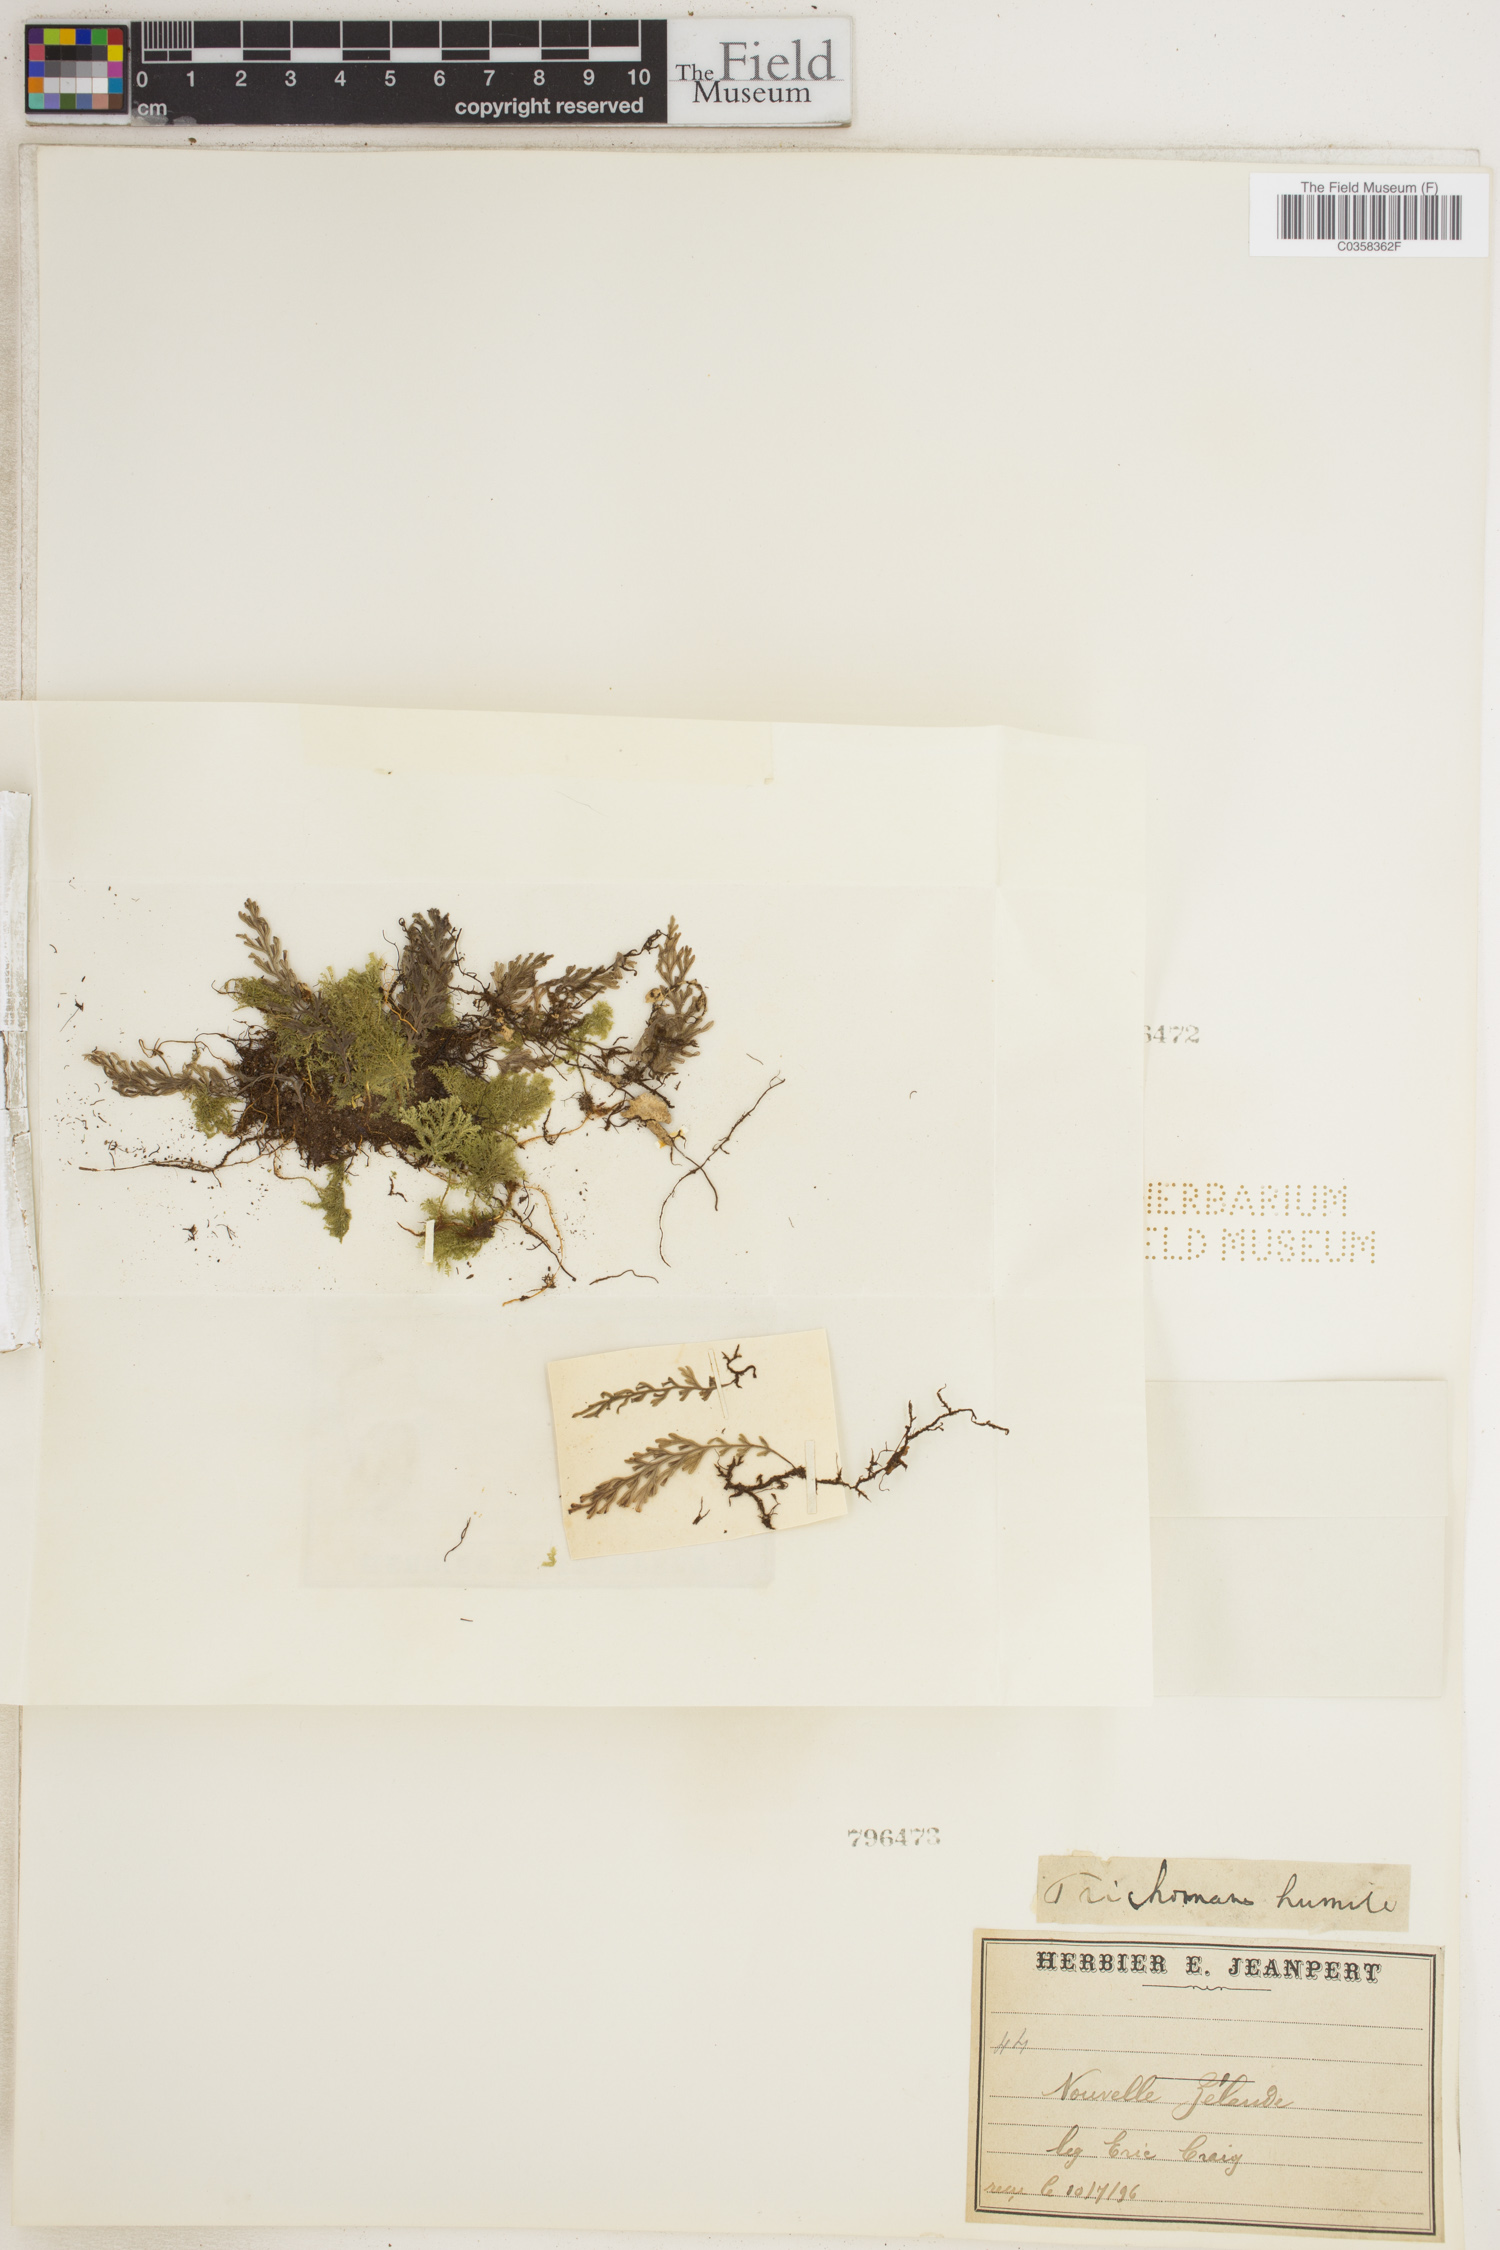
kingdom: Plantae
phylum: Tracheophyta
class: Polypodiopsida
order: Hymenophyllales
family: Hymenophyllaceae
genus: Crepidomanes
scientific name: Crepidomanes humile
